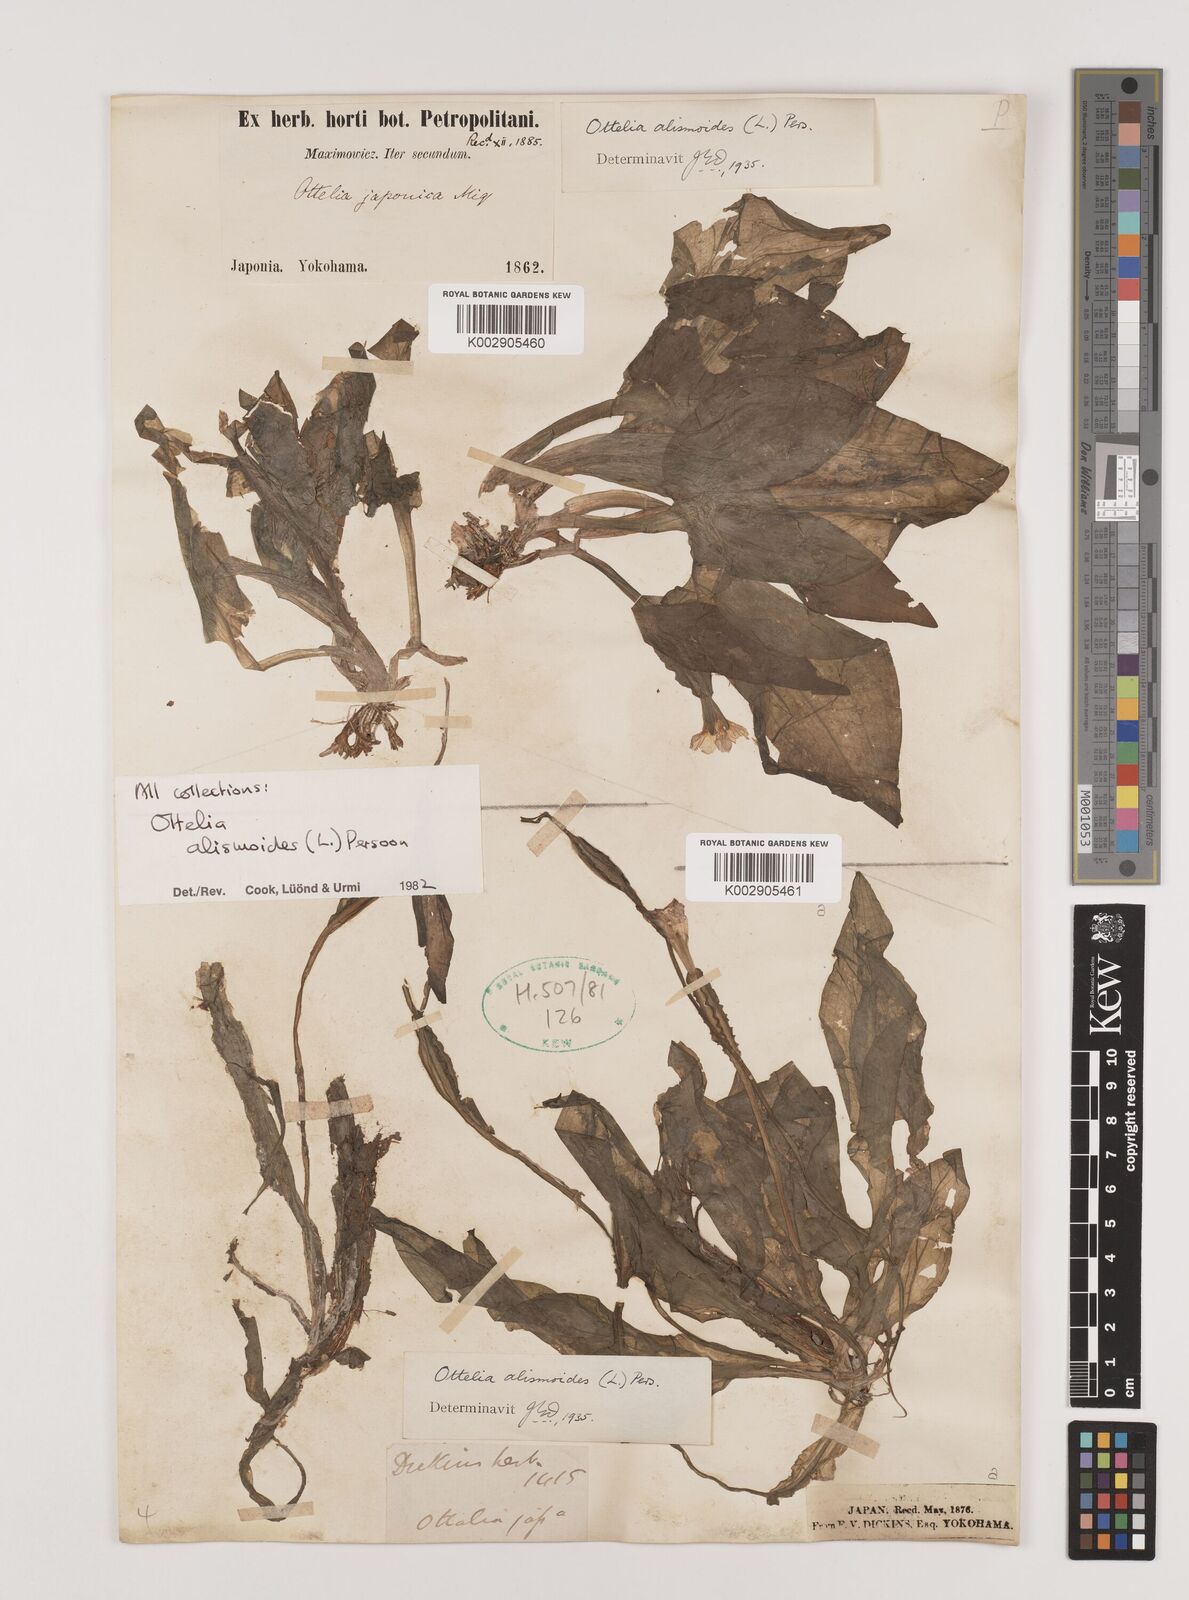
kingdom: Plantae
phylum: Tracheophyta
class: Liliopsida
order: Alismatales
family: Hydrocharitaceae
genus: Ottelia
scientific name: Ottelia alismoides
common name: Duck-lettuce
